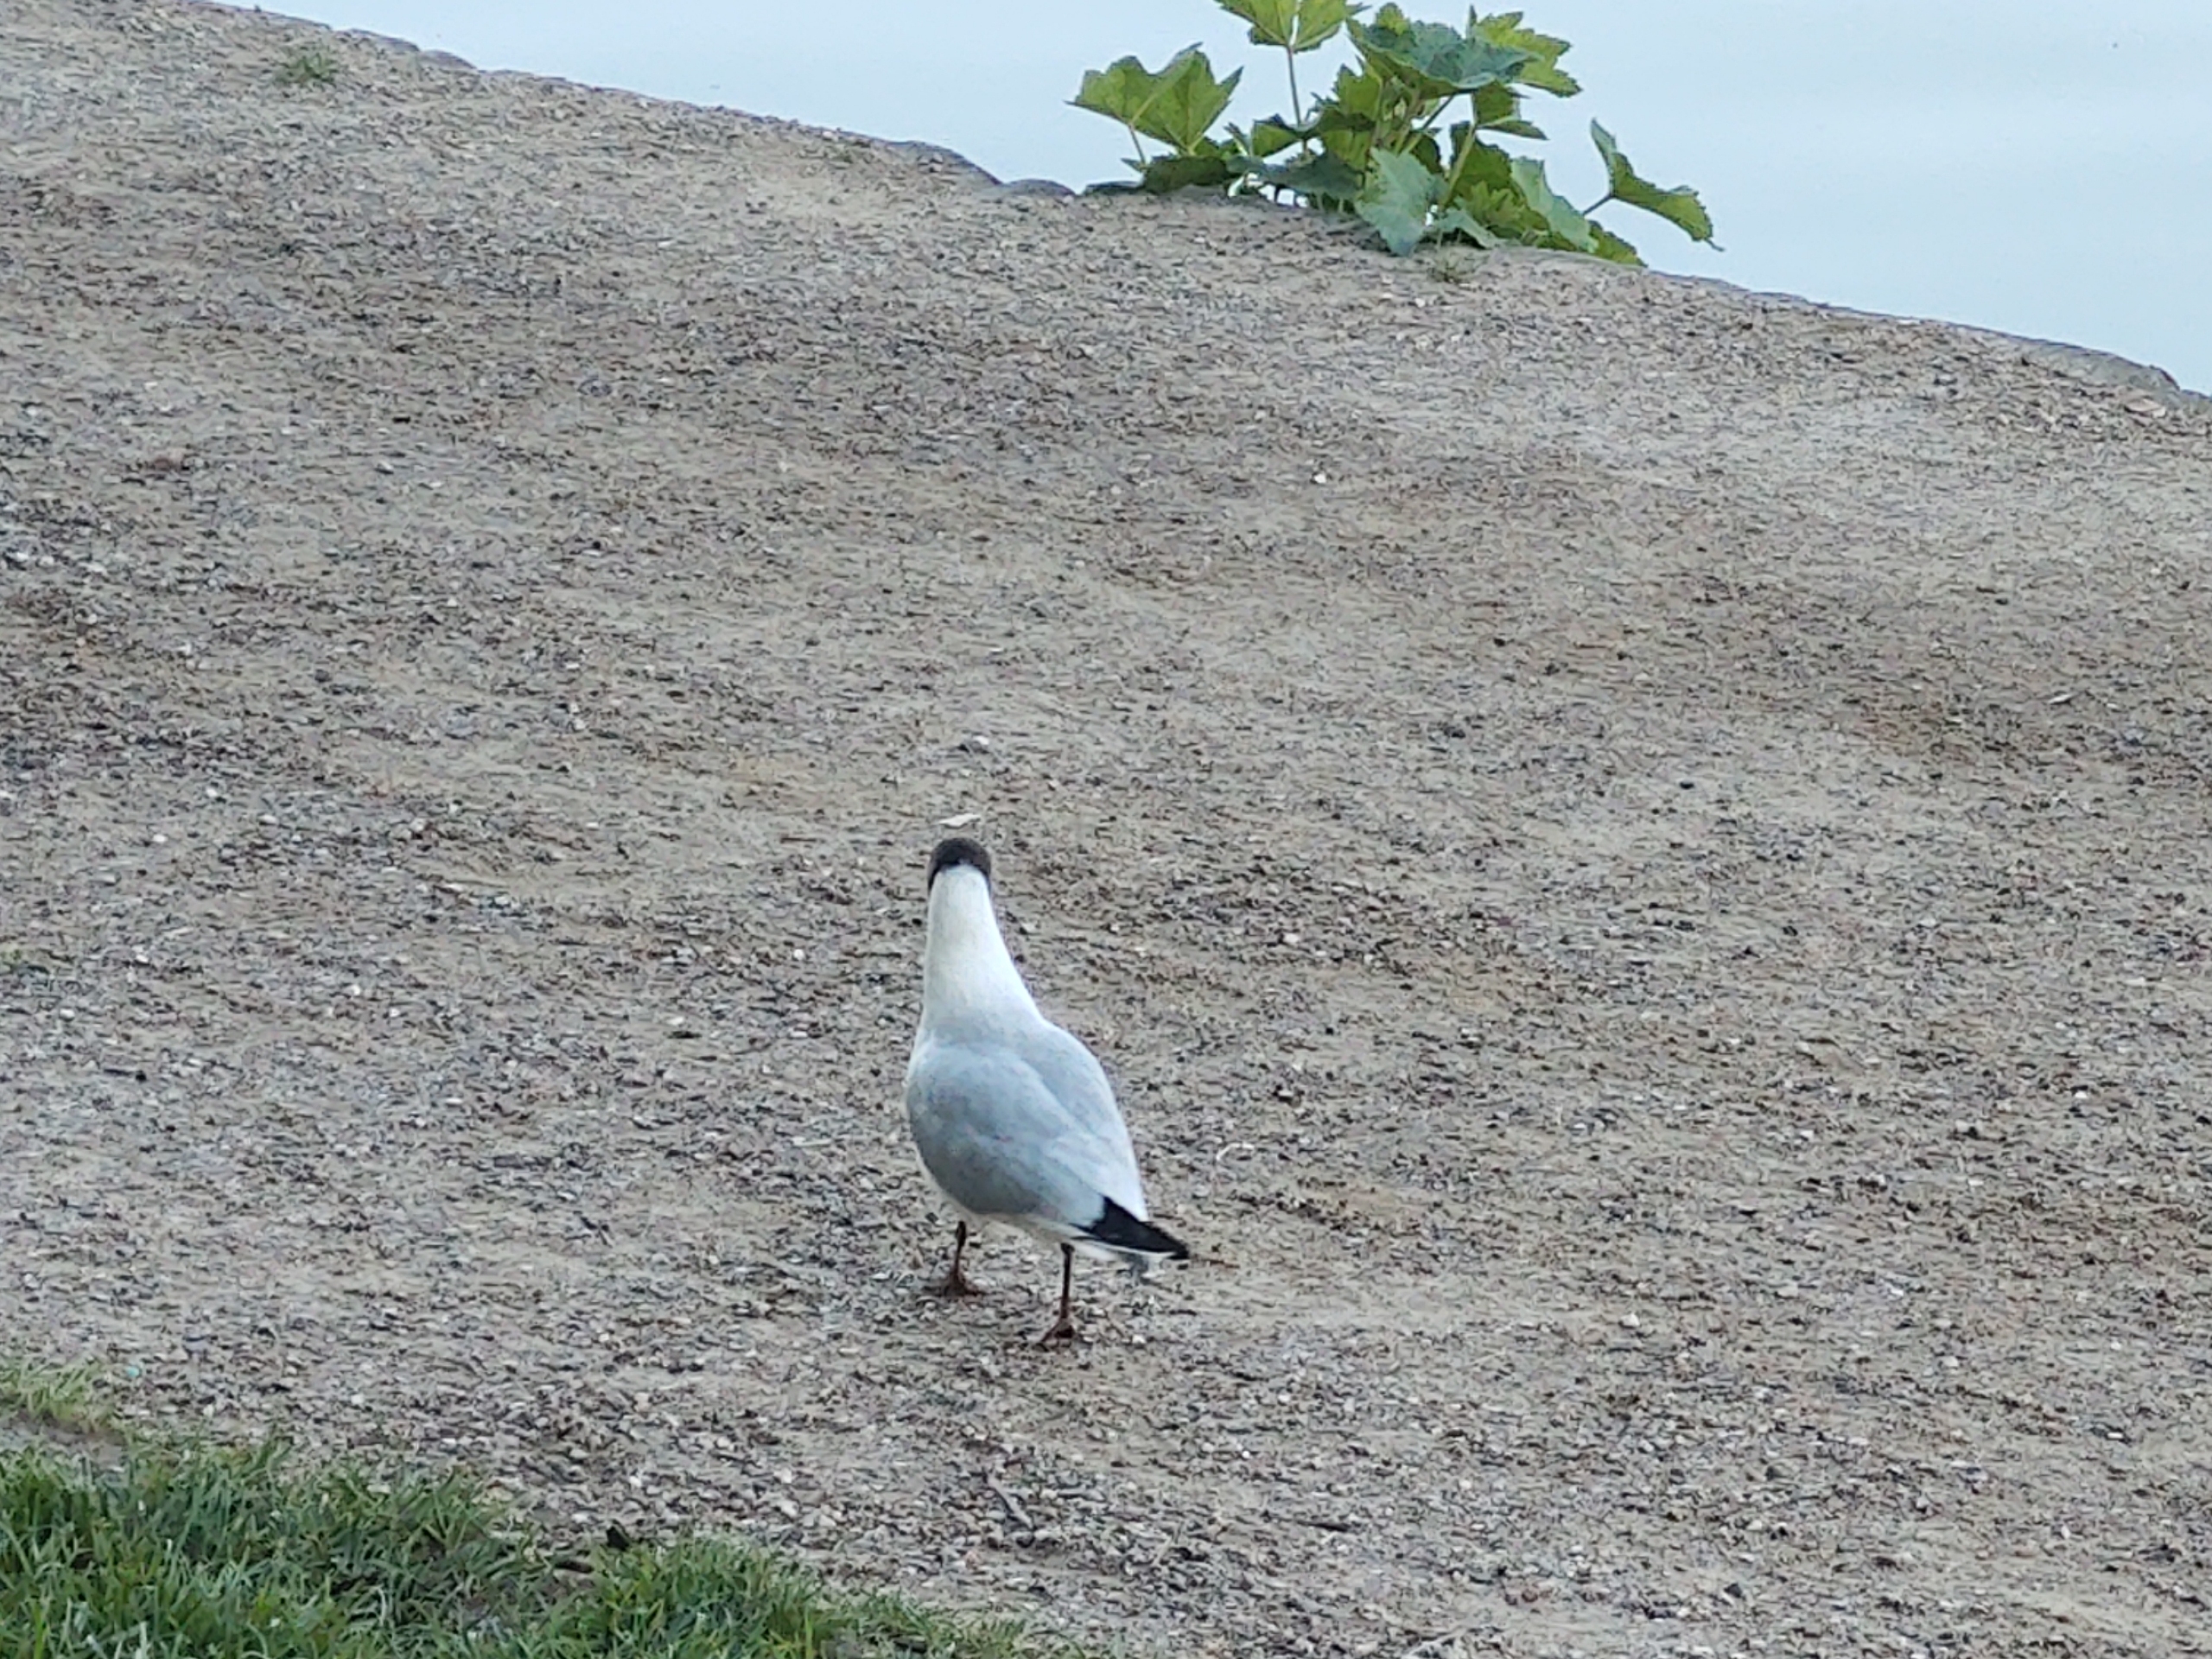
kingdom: Animalia
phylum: Chordata
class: Aves
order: Charadriiformes
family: Laridae
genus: Chroicocephalus
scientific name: Chroicocephalus ridibundus
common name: Hættemåge
